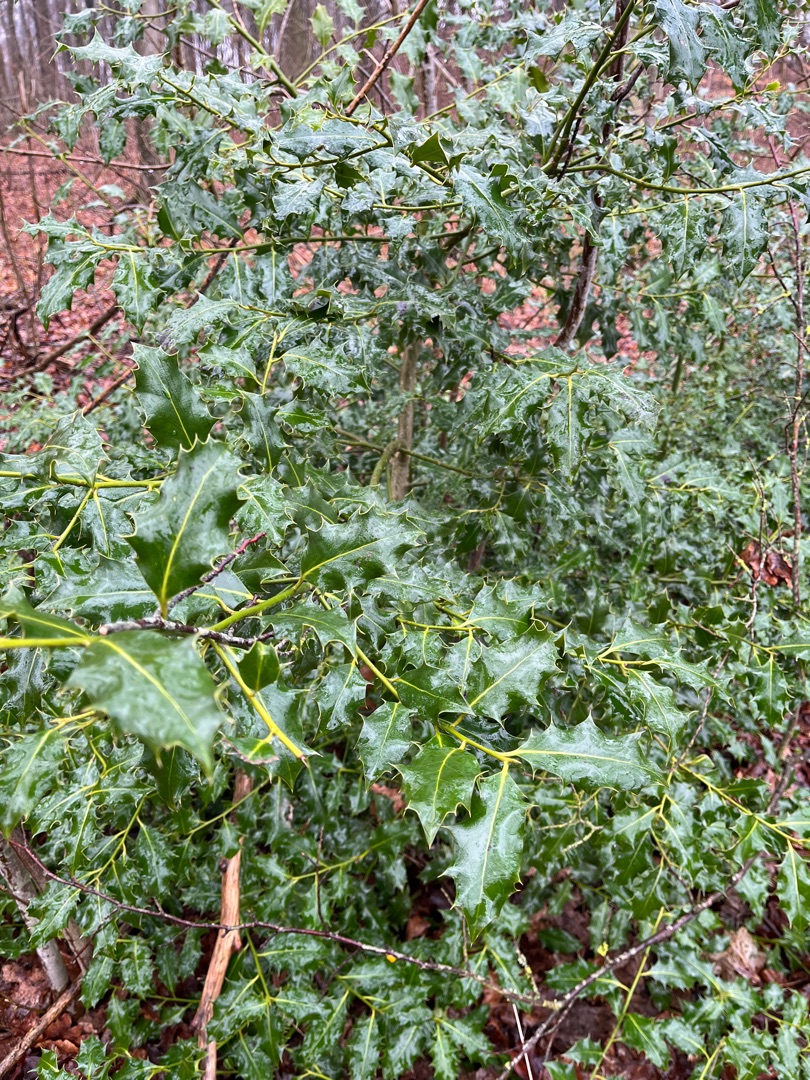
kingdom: Plantae
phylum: Tracheophyta
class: Magnoliopsida
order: Aquifoliales
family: Aquifoliaceae
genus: Ilex
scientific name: Ilex aquifolium
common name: Kristtorn
